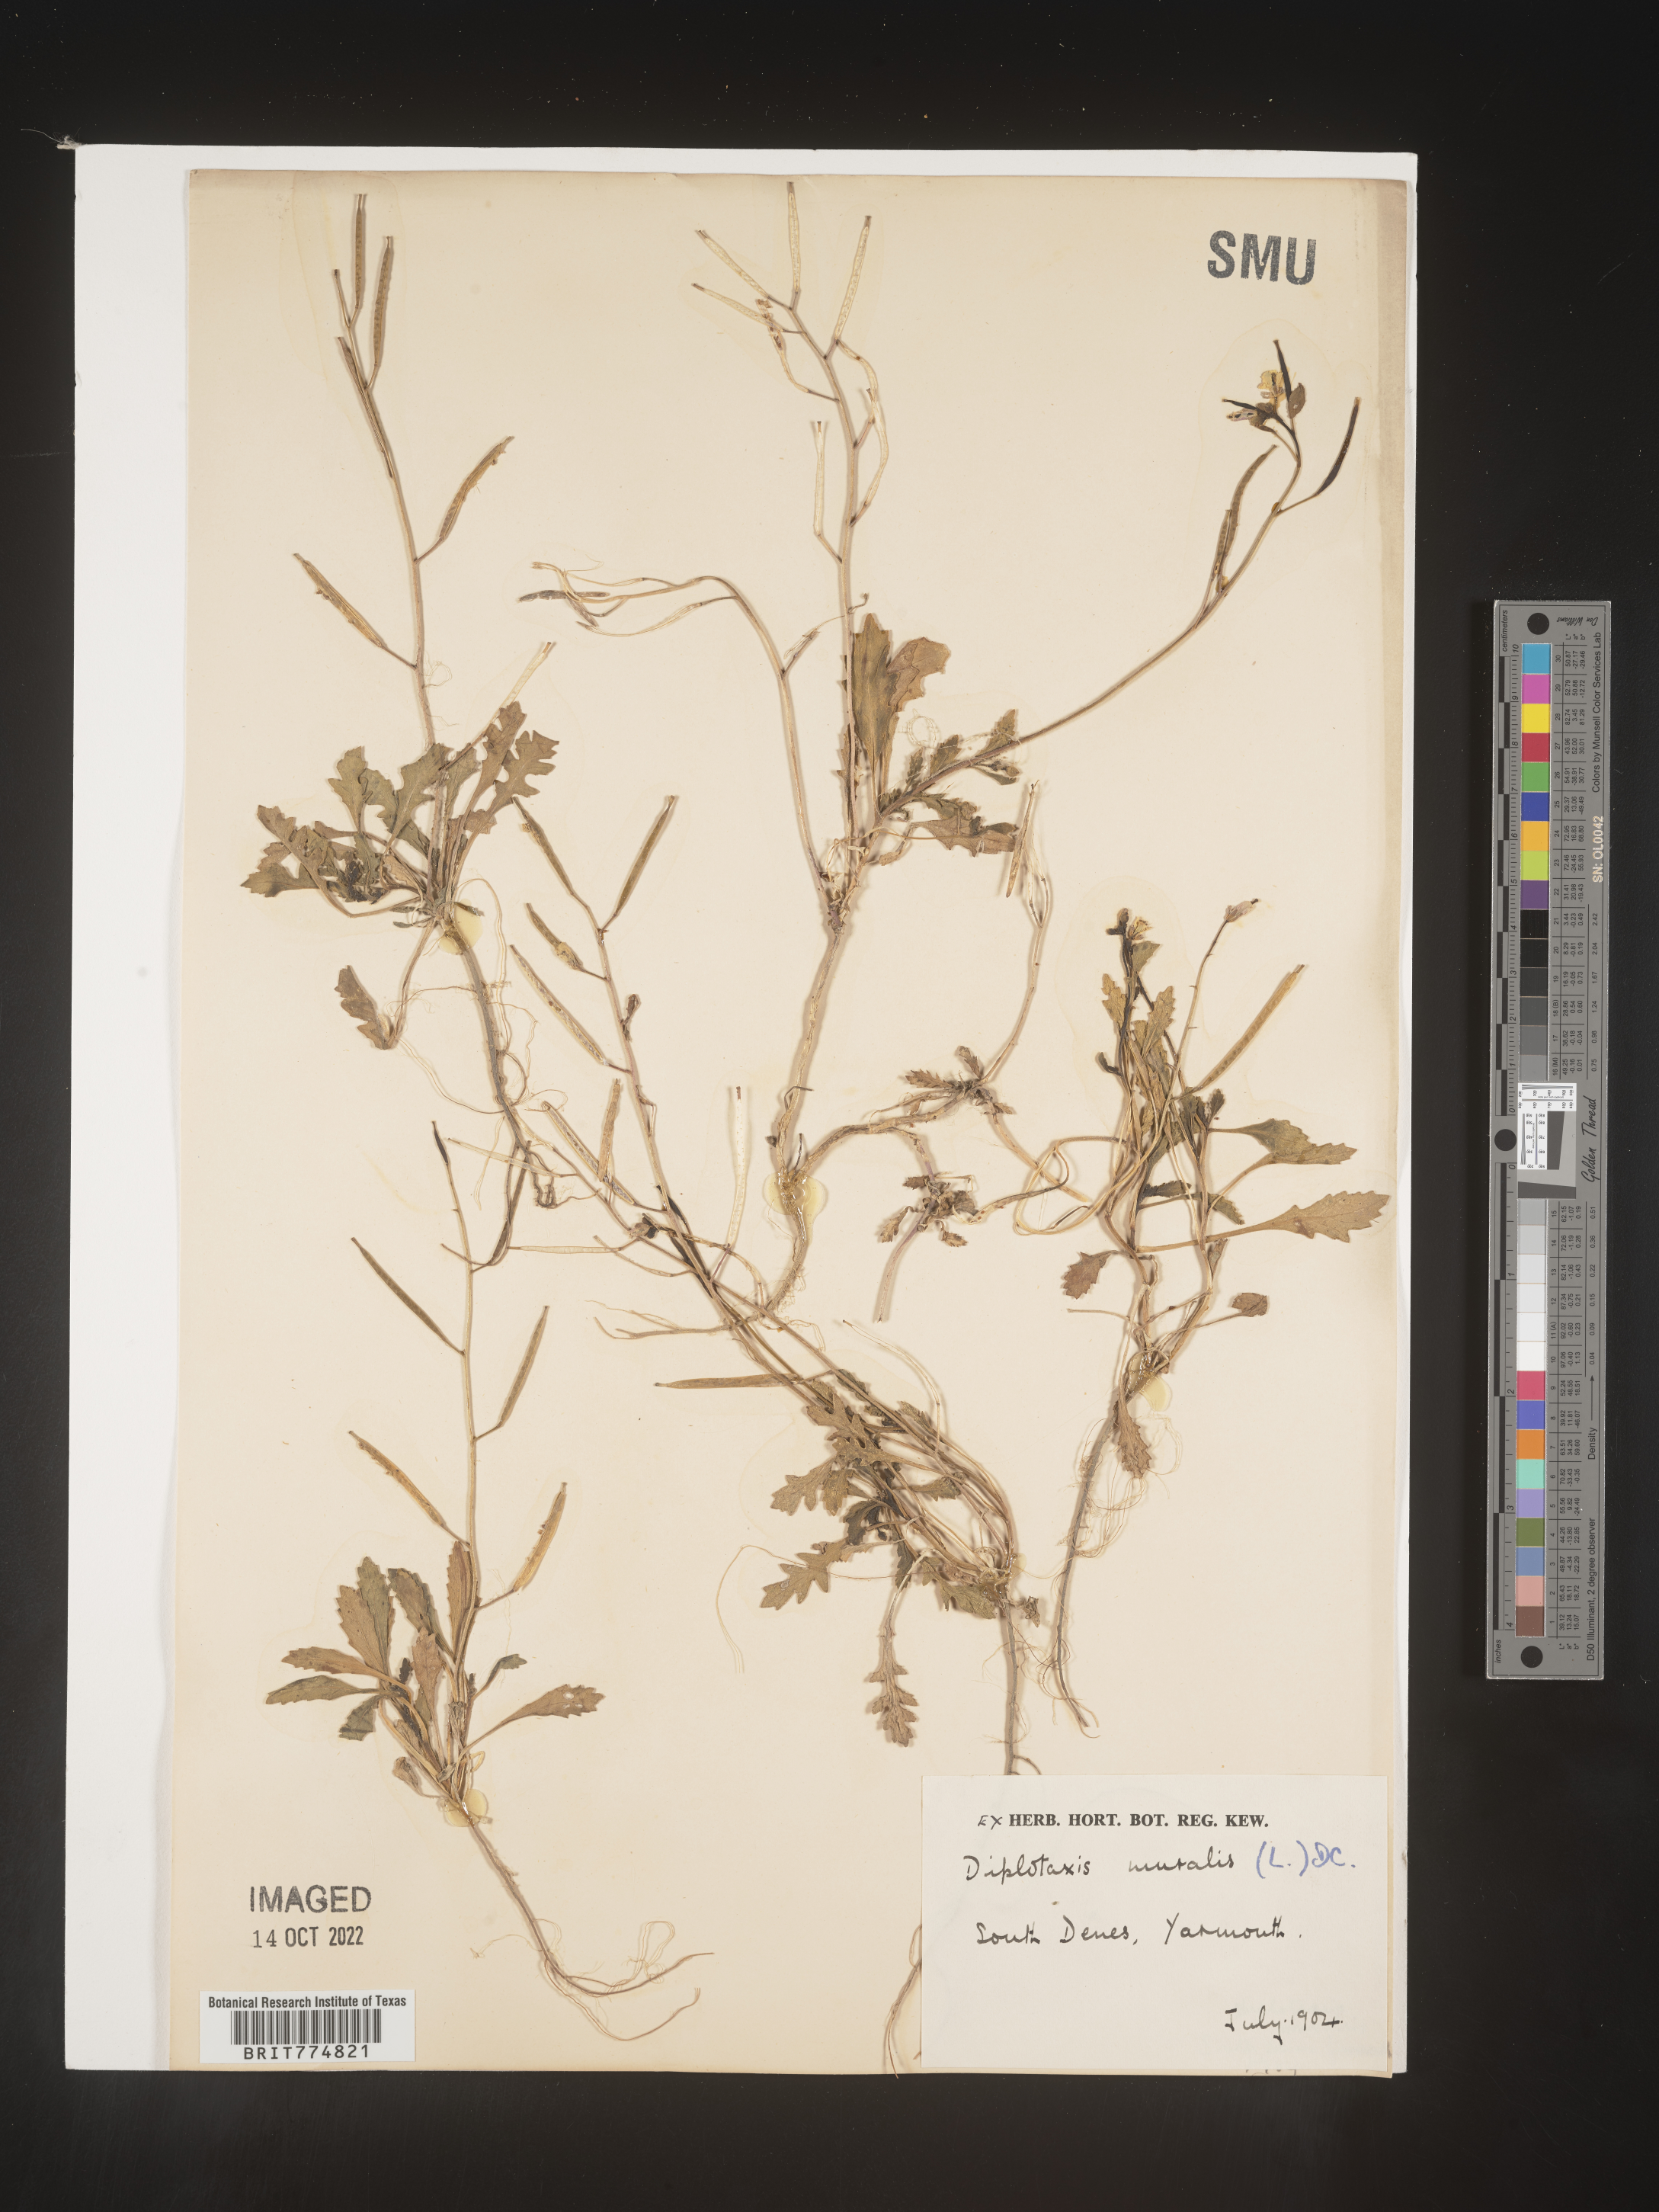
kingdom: Plantae
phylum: Tracheophyta
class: Magnoliopsida
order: Brassicales
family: Brassicaceae
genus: Diplotaxis
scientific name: Diplotaxis
